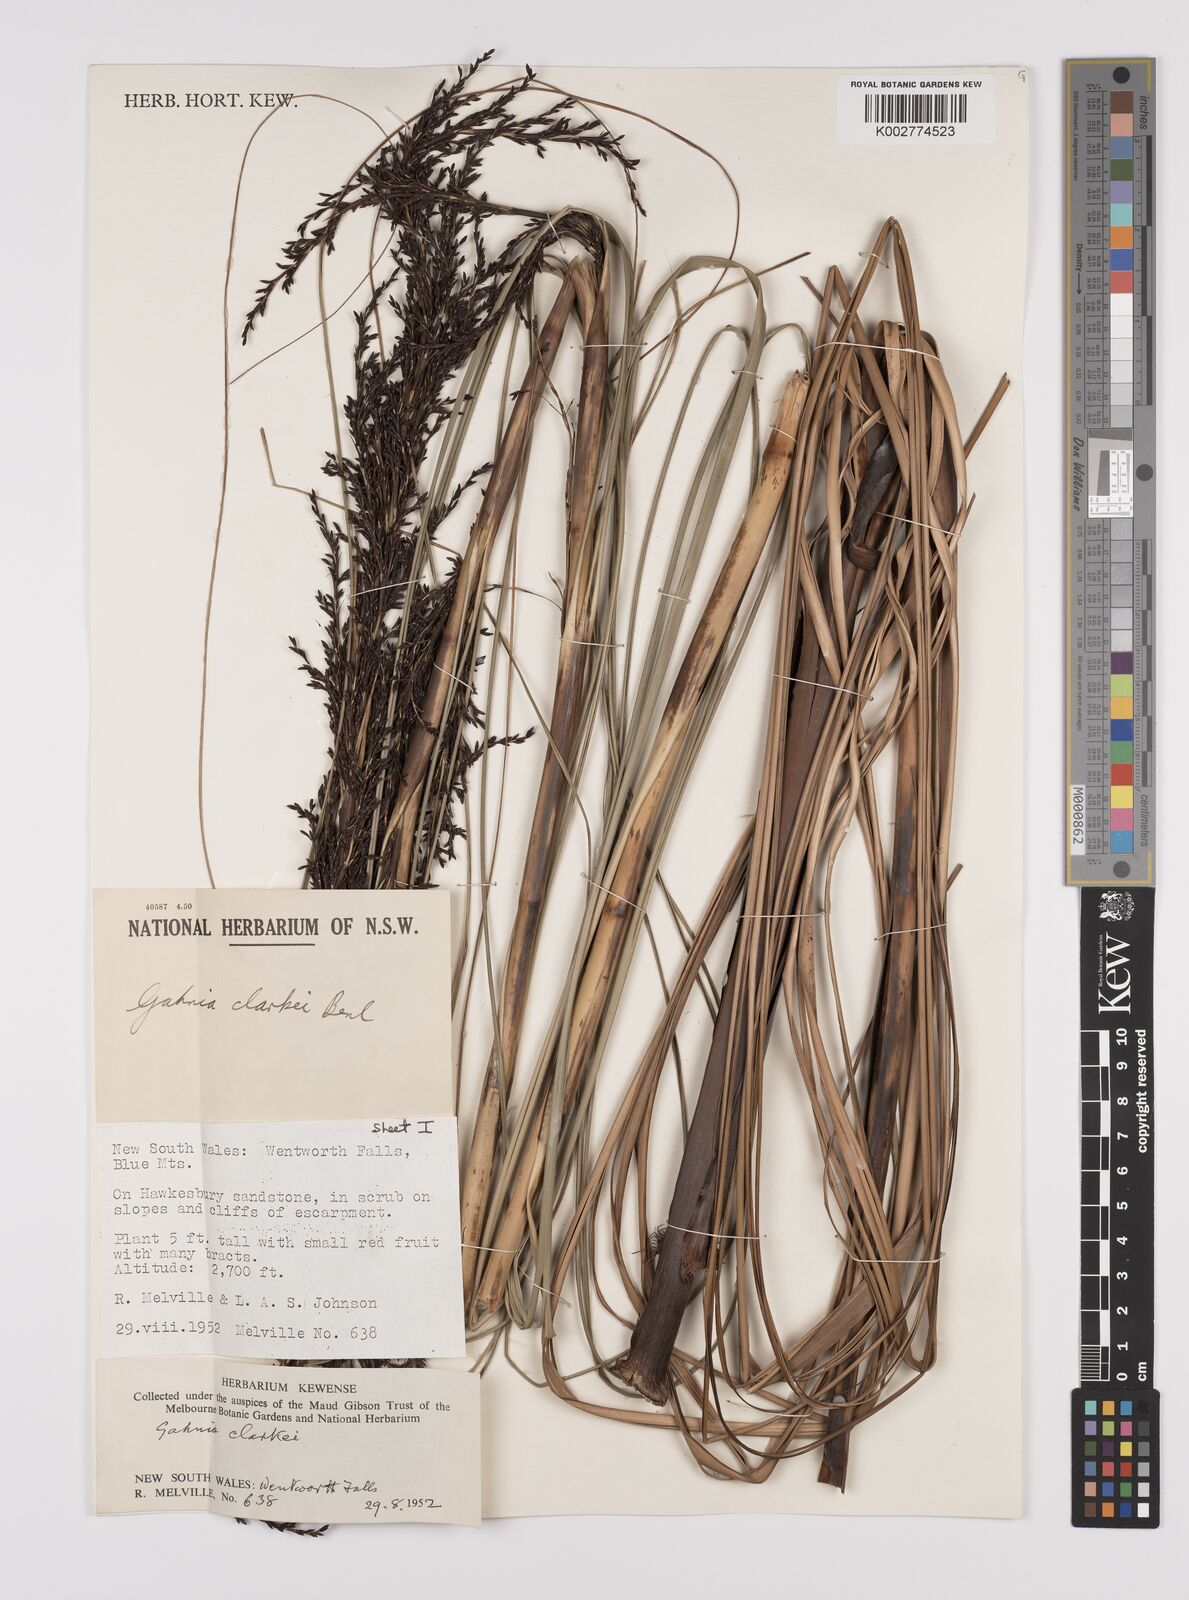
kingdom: Plantae
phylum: Tracheophyta
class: Liliopsida
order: Poales
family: Cyperaceae
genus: Gahnia
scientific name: Gahnia clarkei
